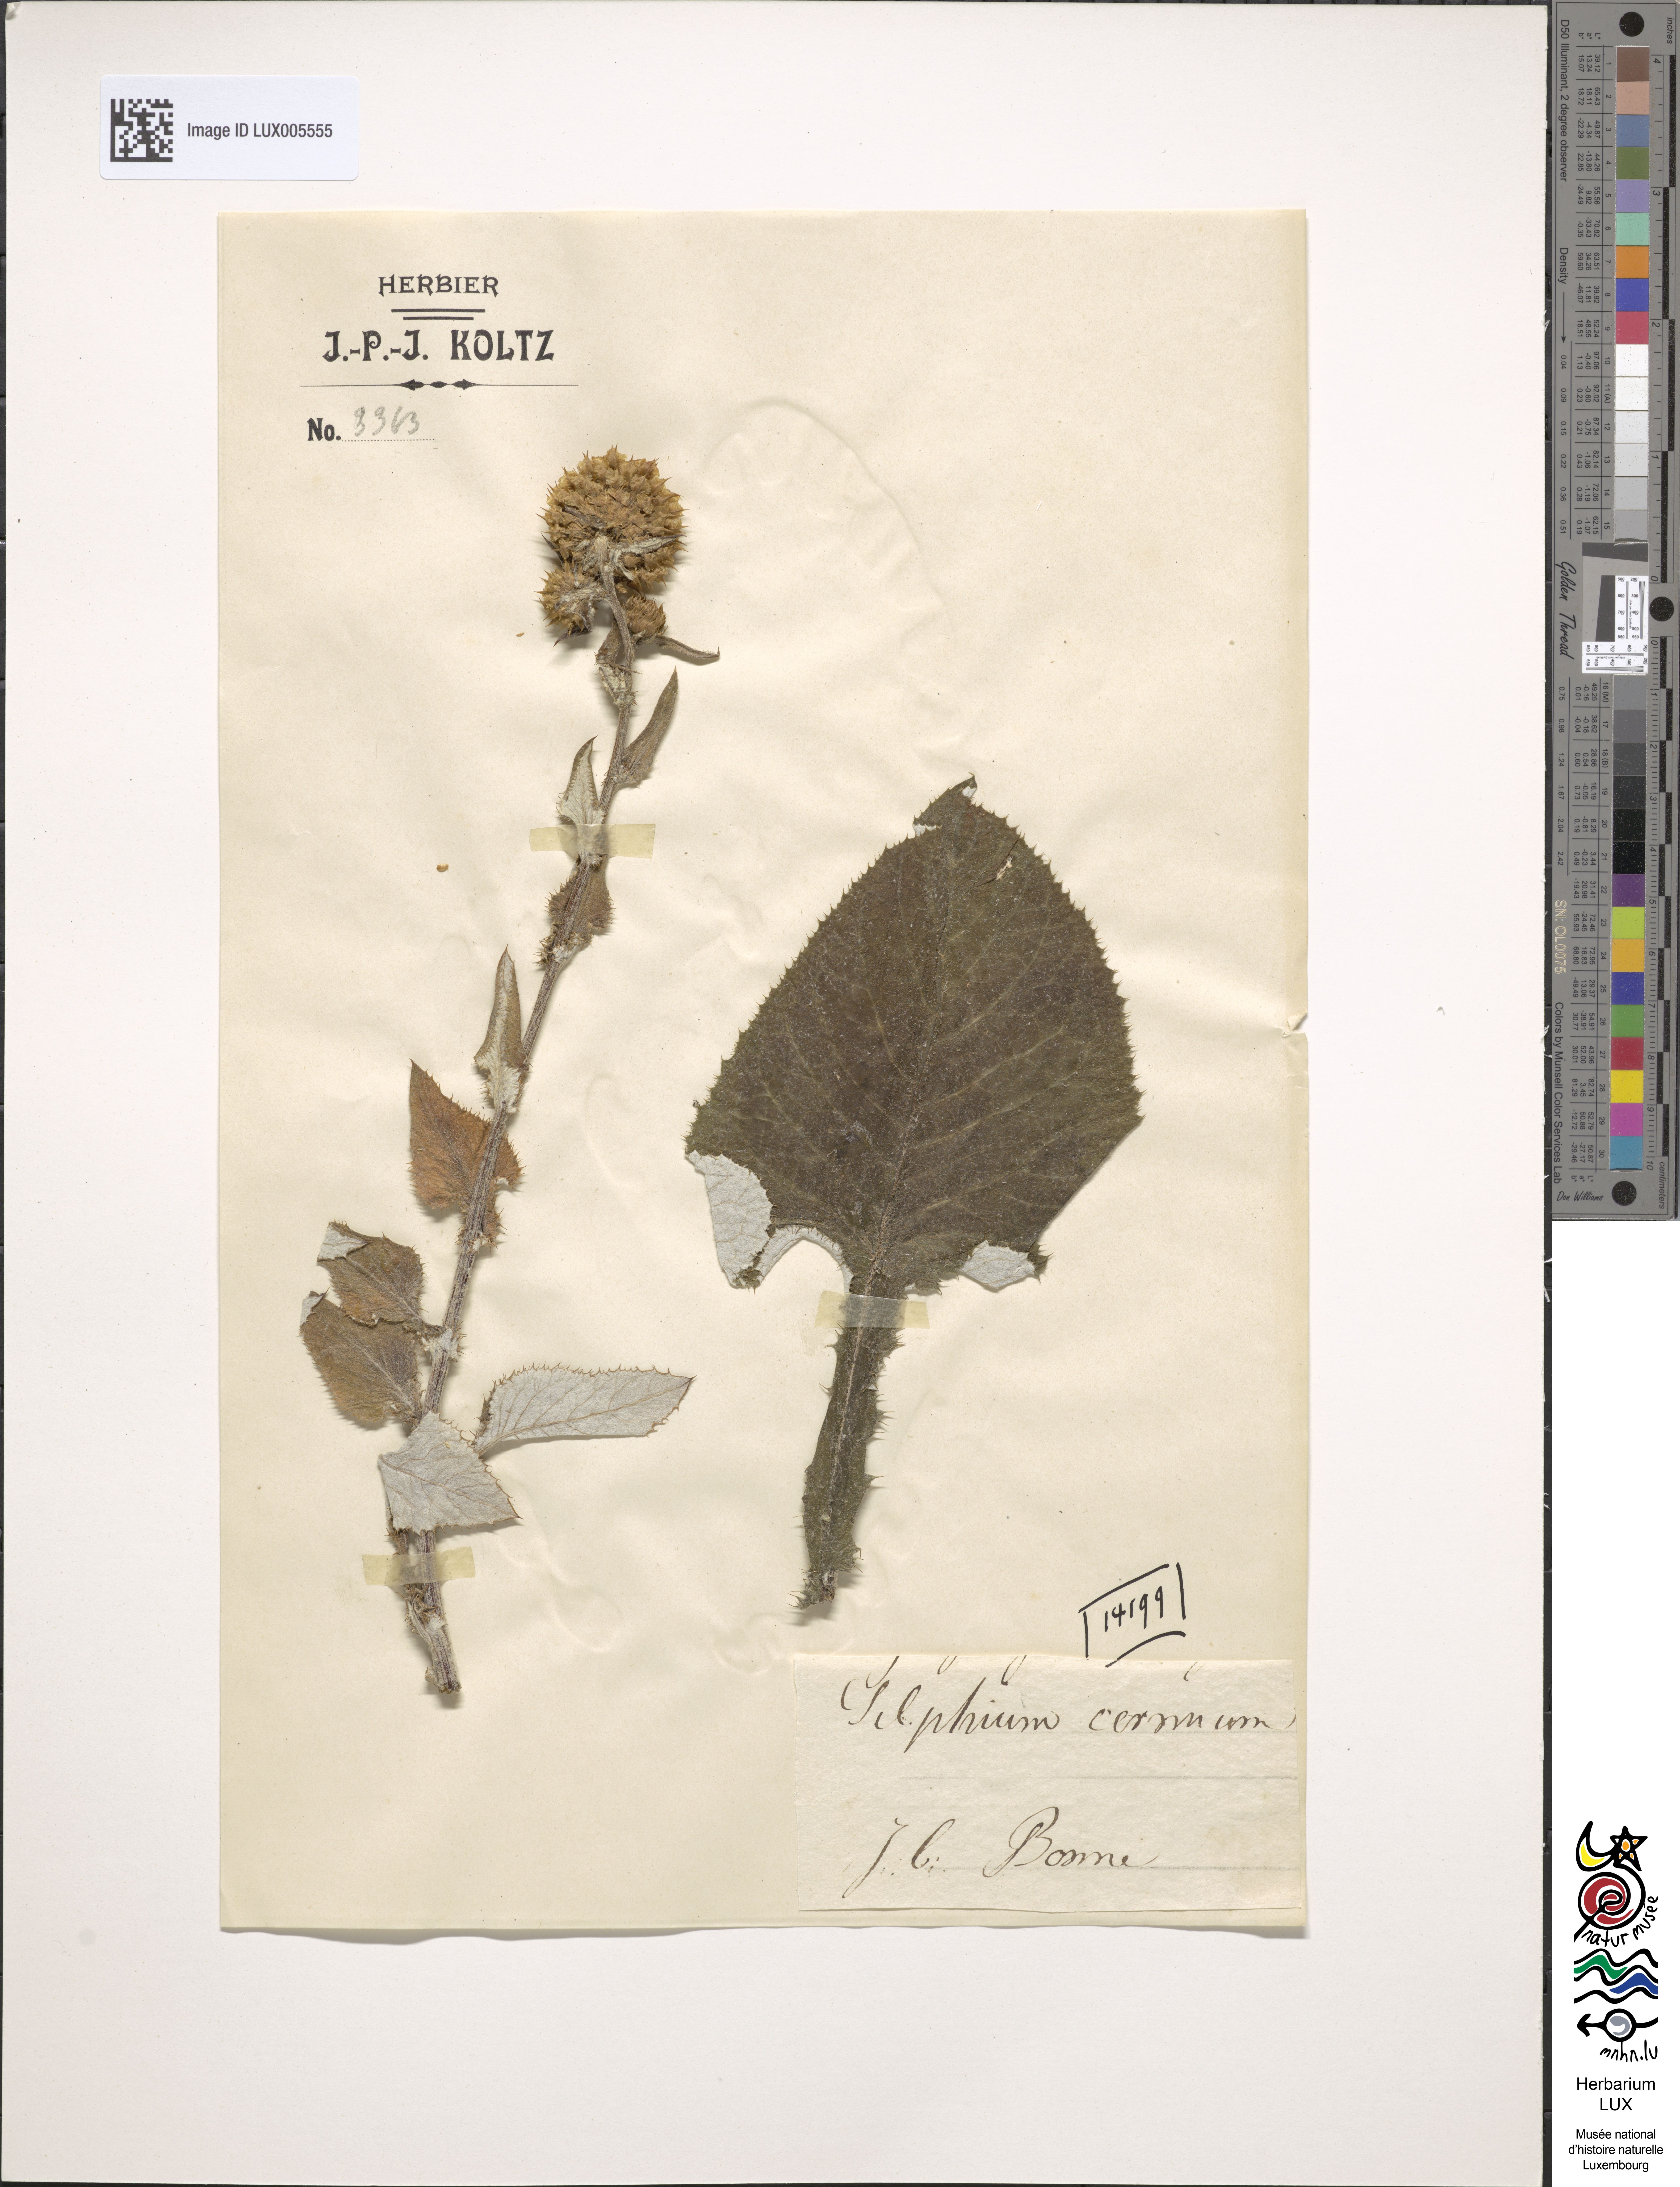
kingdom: Plantae
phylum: Tracheophyta
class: Magnoliopsida
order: Asterales
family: Asteraceae
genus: Silphium
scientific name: Silphium
